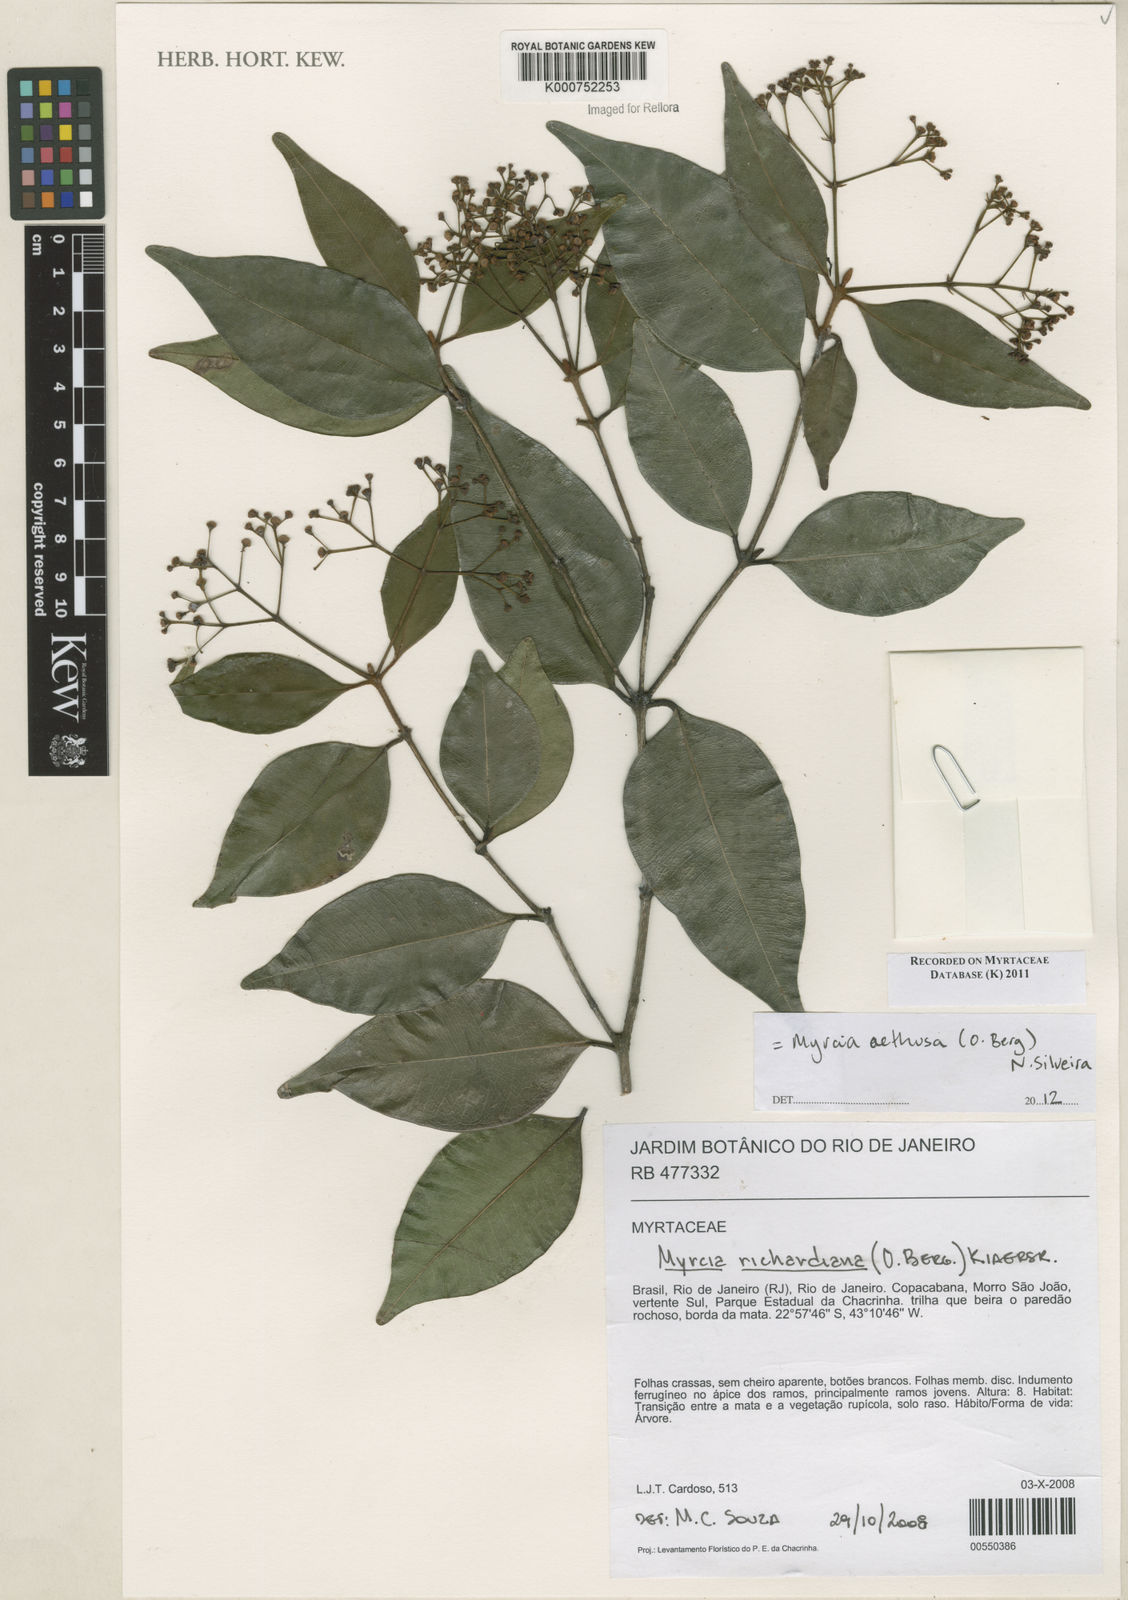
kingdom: Plantae
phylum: Tracheophyta
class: Magnoliopsida
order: Myrtales
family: Myrtaceae
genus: Myrcia
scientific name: Myrcia aethusa
